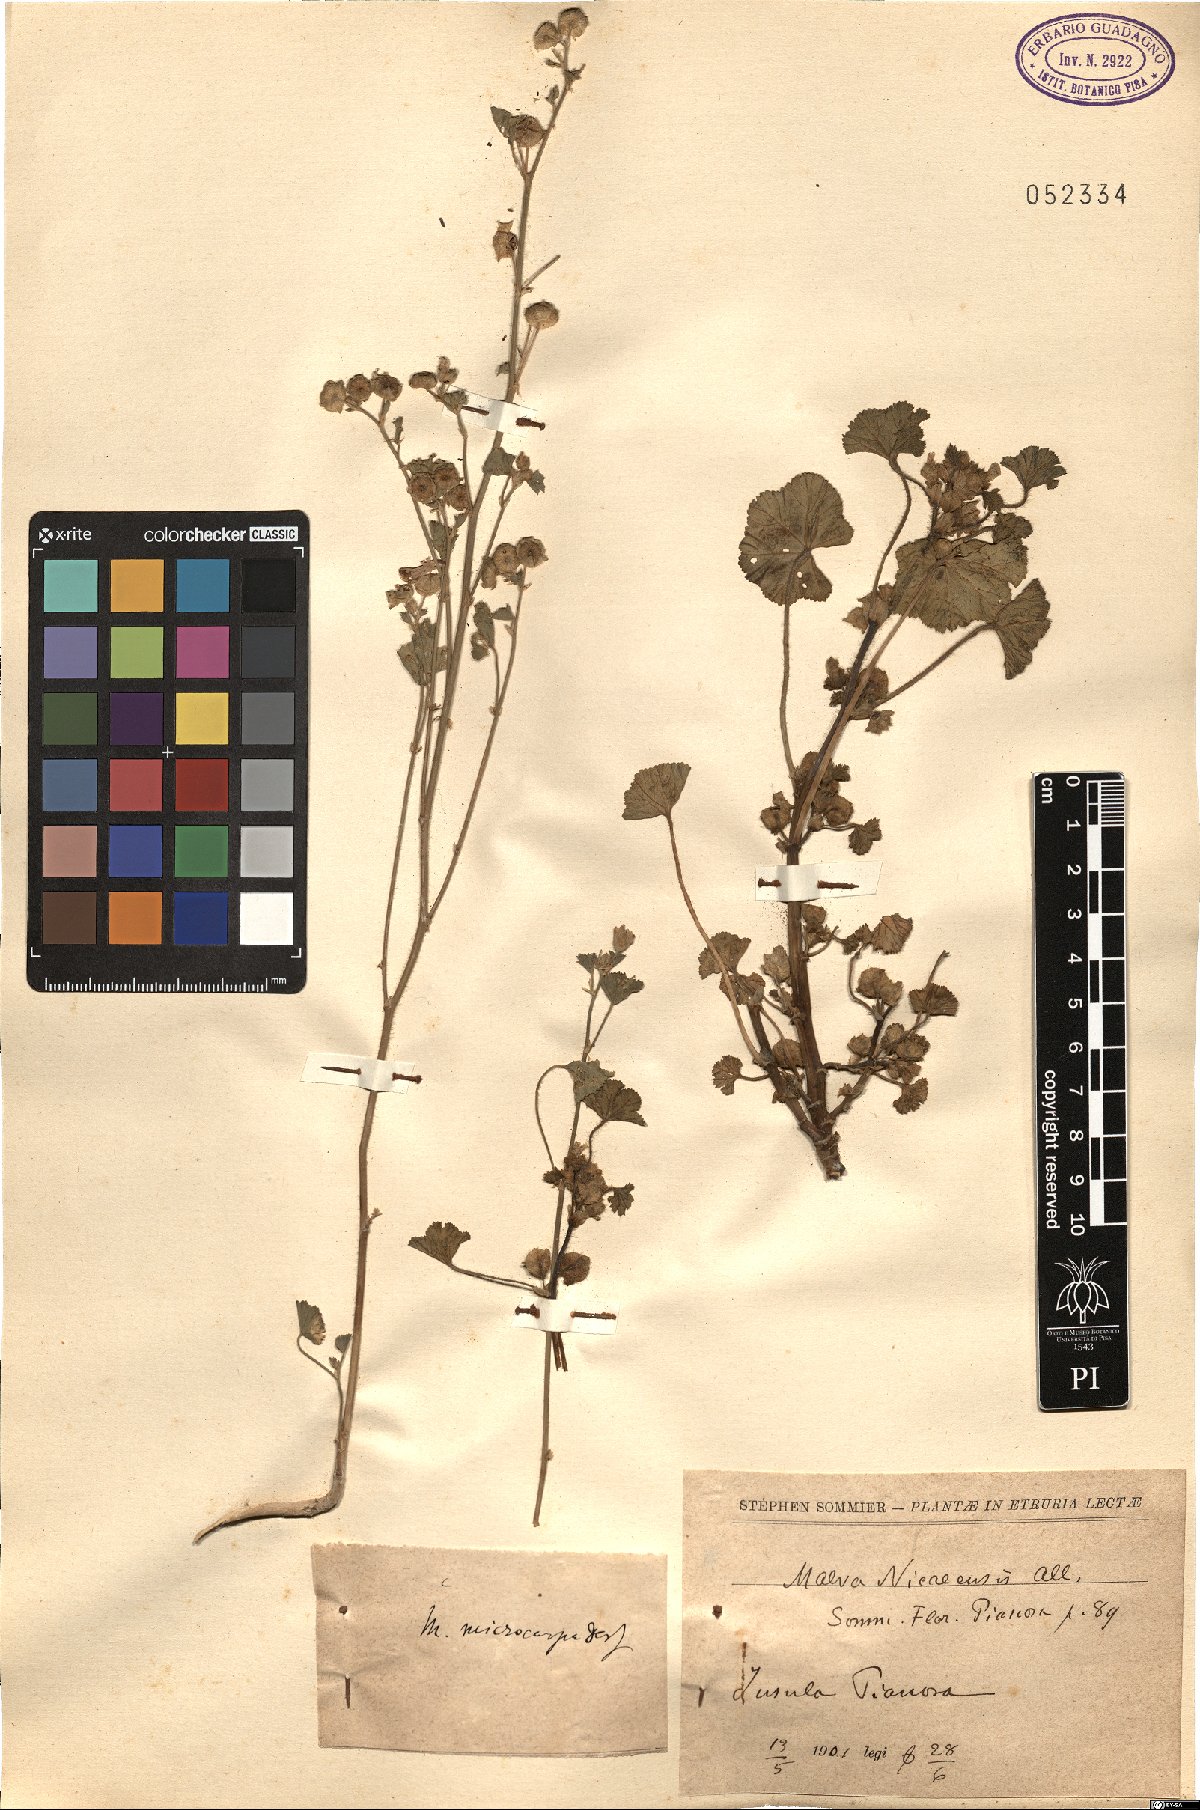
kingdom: Plantae
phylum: Tracheophyta
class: Magnoliopsida
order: Malvales
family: Malvaceae
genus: Malva
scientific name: Malva parviflora
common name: Least mallow
